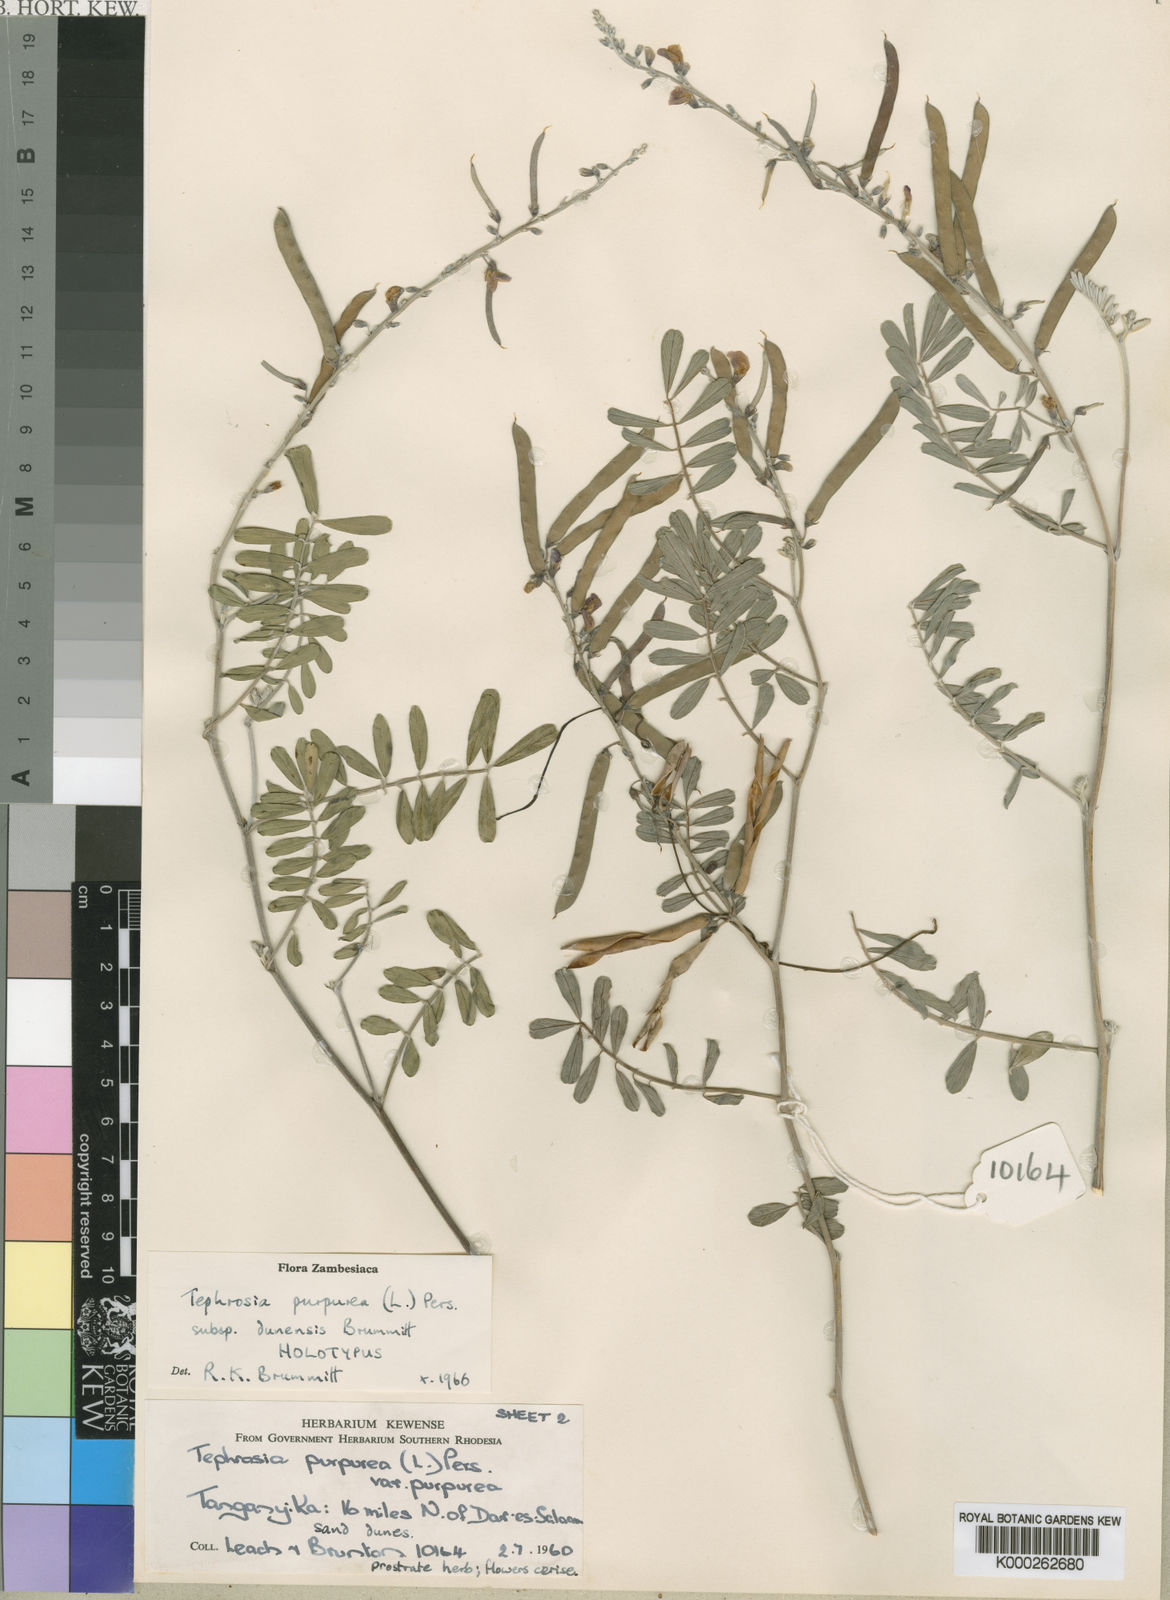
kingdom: Plantae
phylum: Tracheophyta
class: Magnoliopsida
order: Fabales
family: Fabaceae
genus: Tephrosia
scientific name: Tephrosia purpurea
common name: Fishpoison
